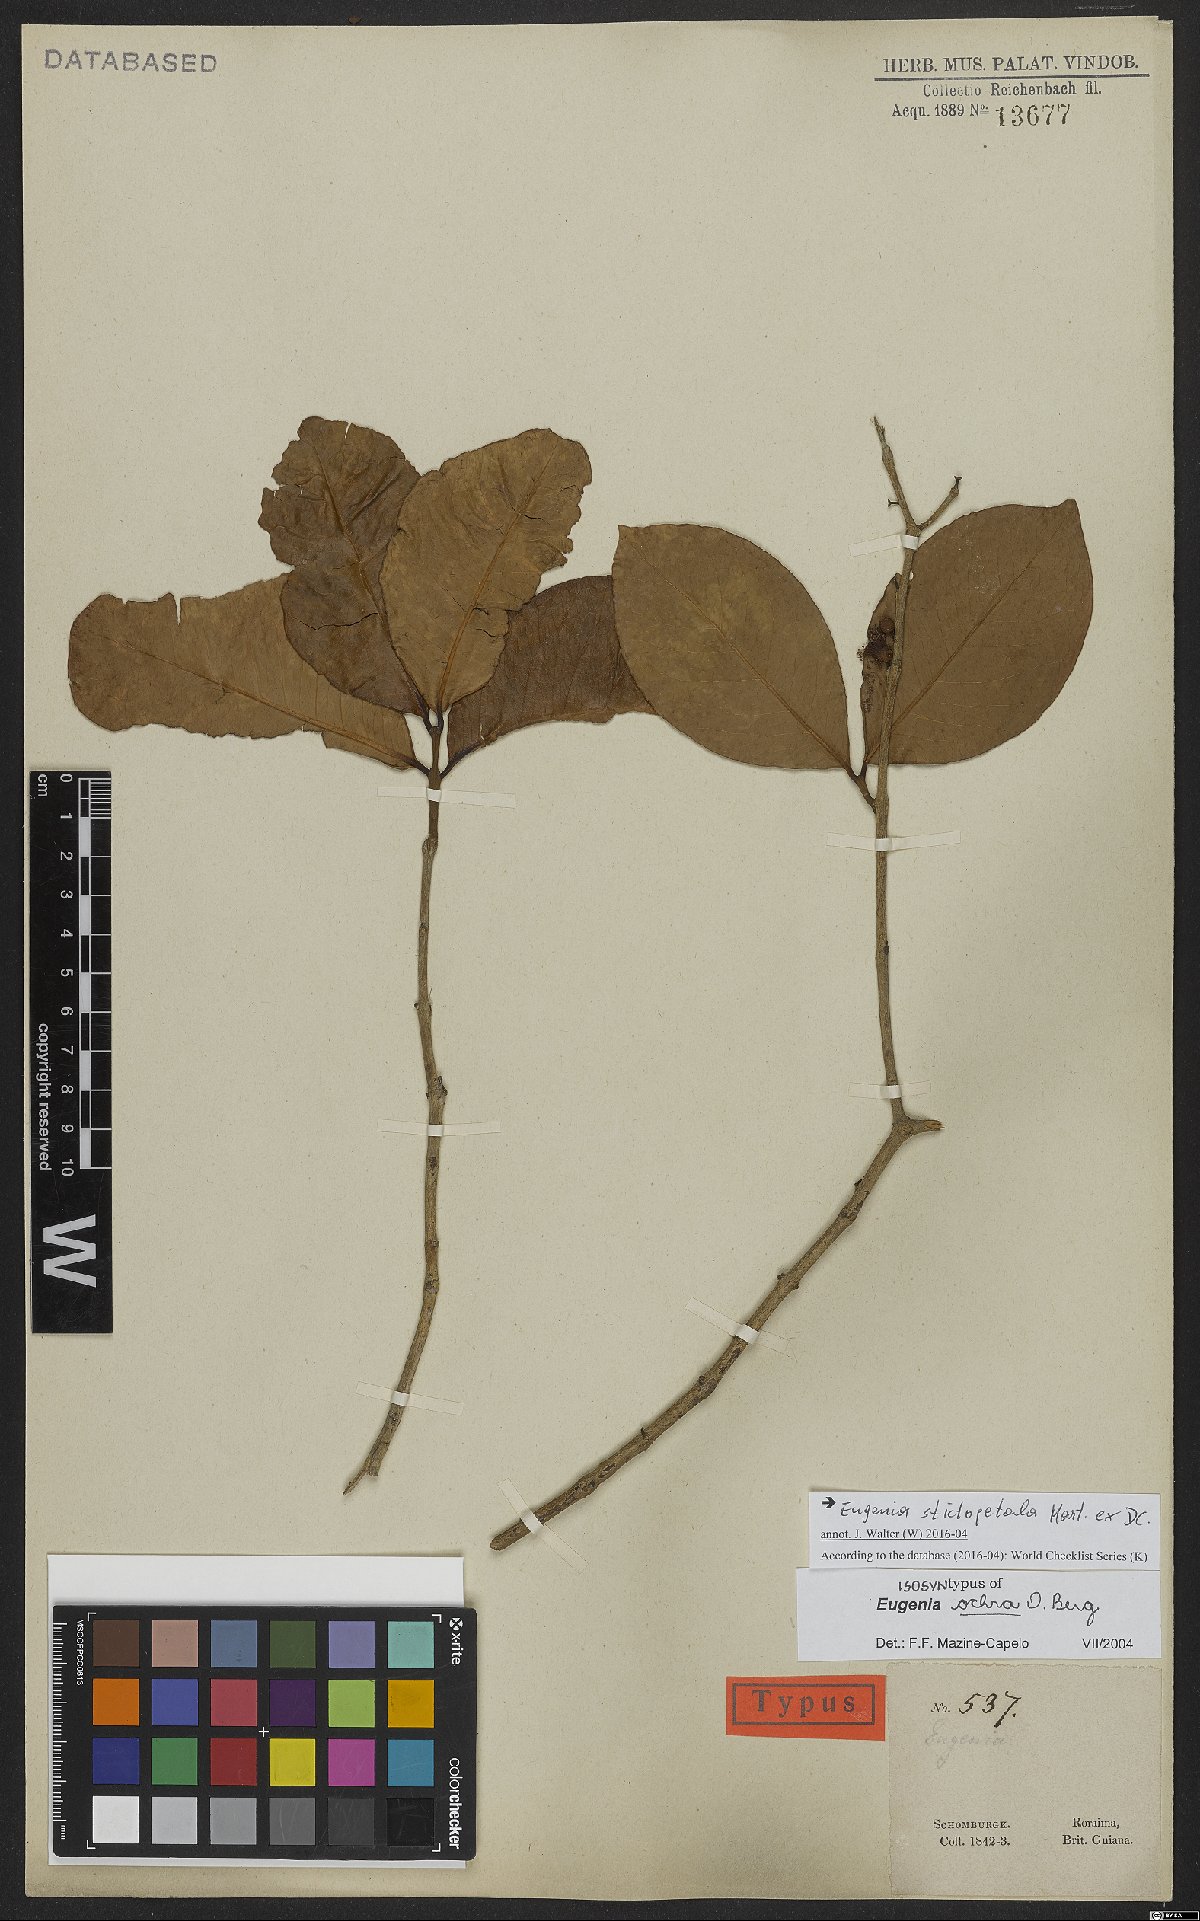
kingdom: Plantae
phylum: Tracheophyta
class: Magnoliopsida
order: Myrtales
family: Myrtaceae
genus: Eugenia
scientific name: Eugenia stictopetala
